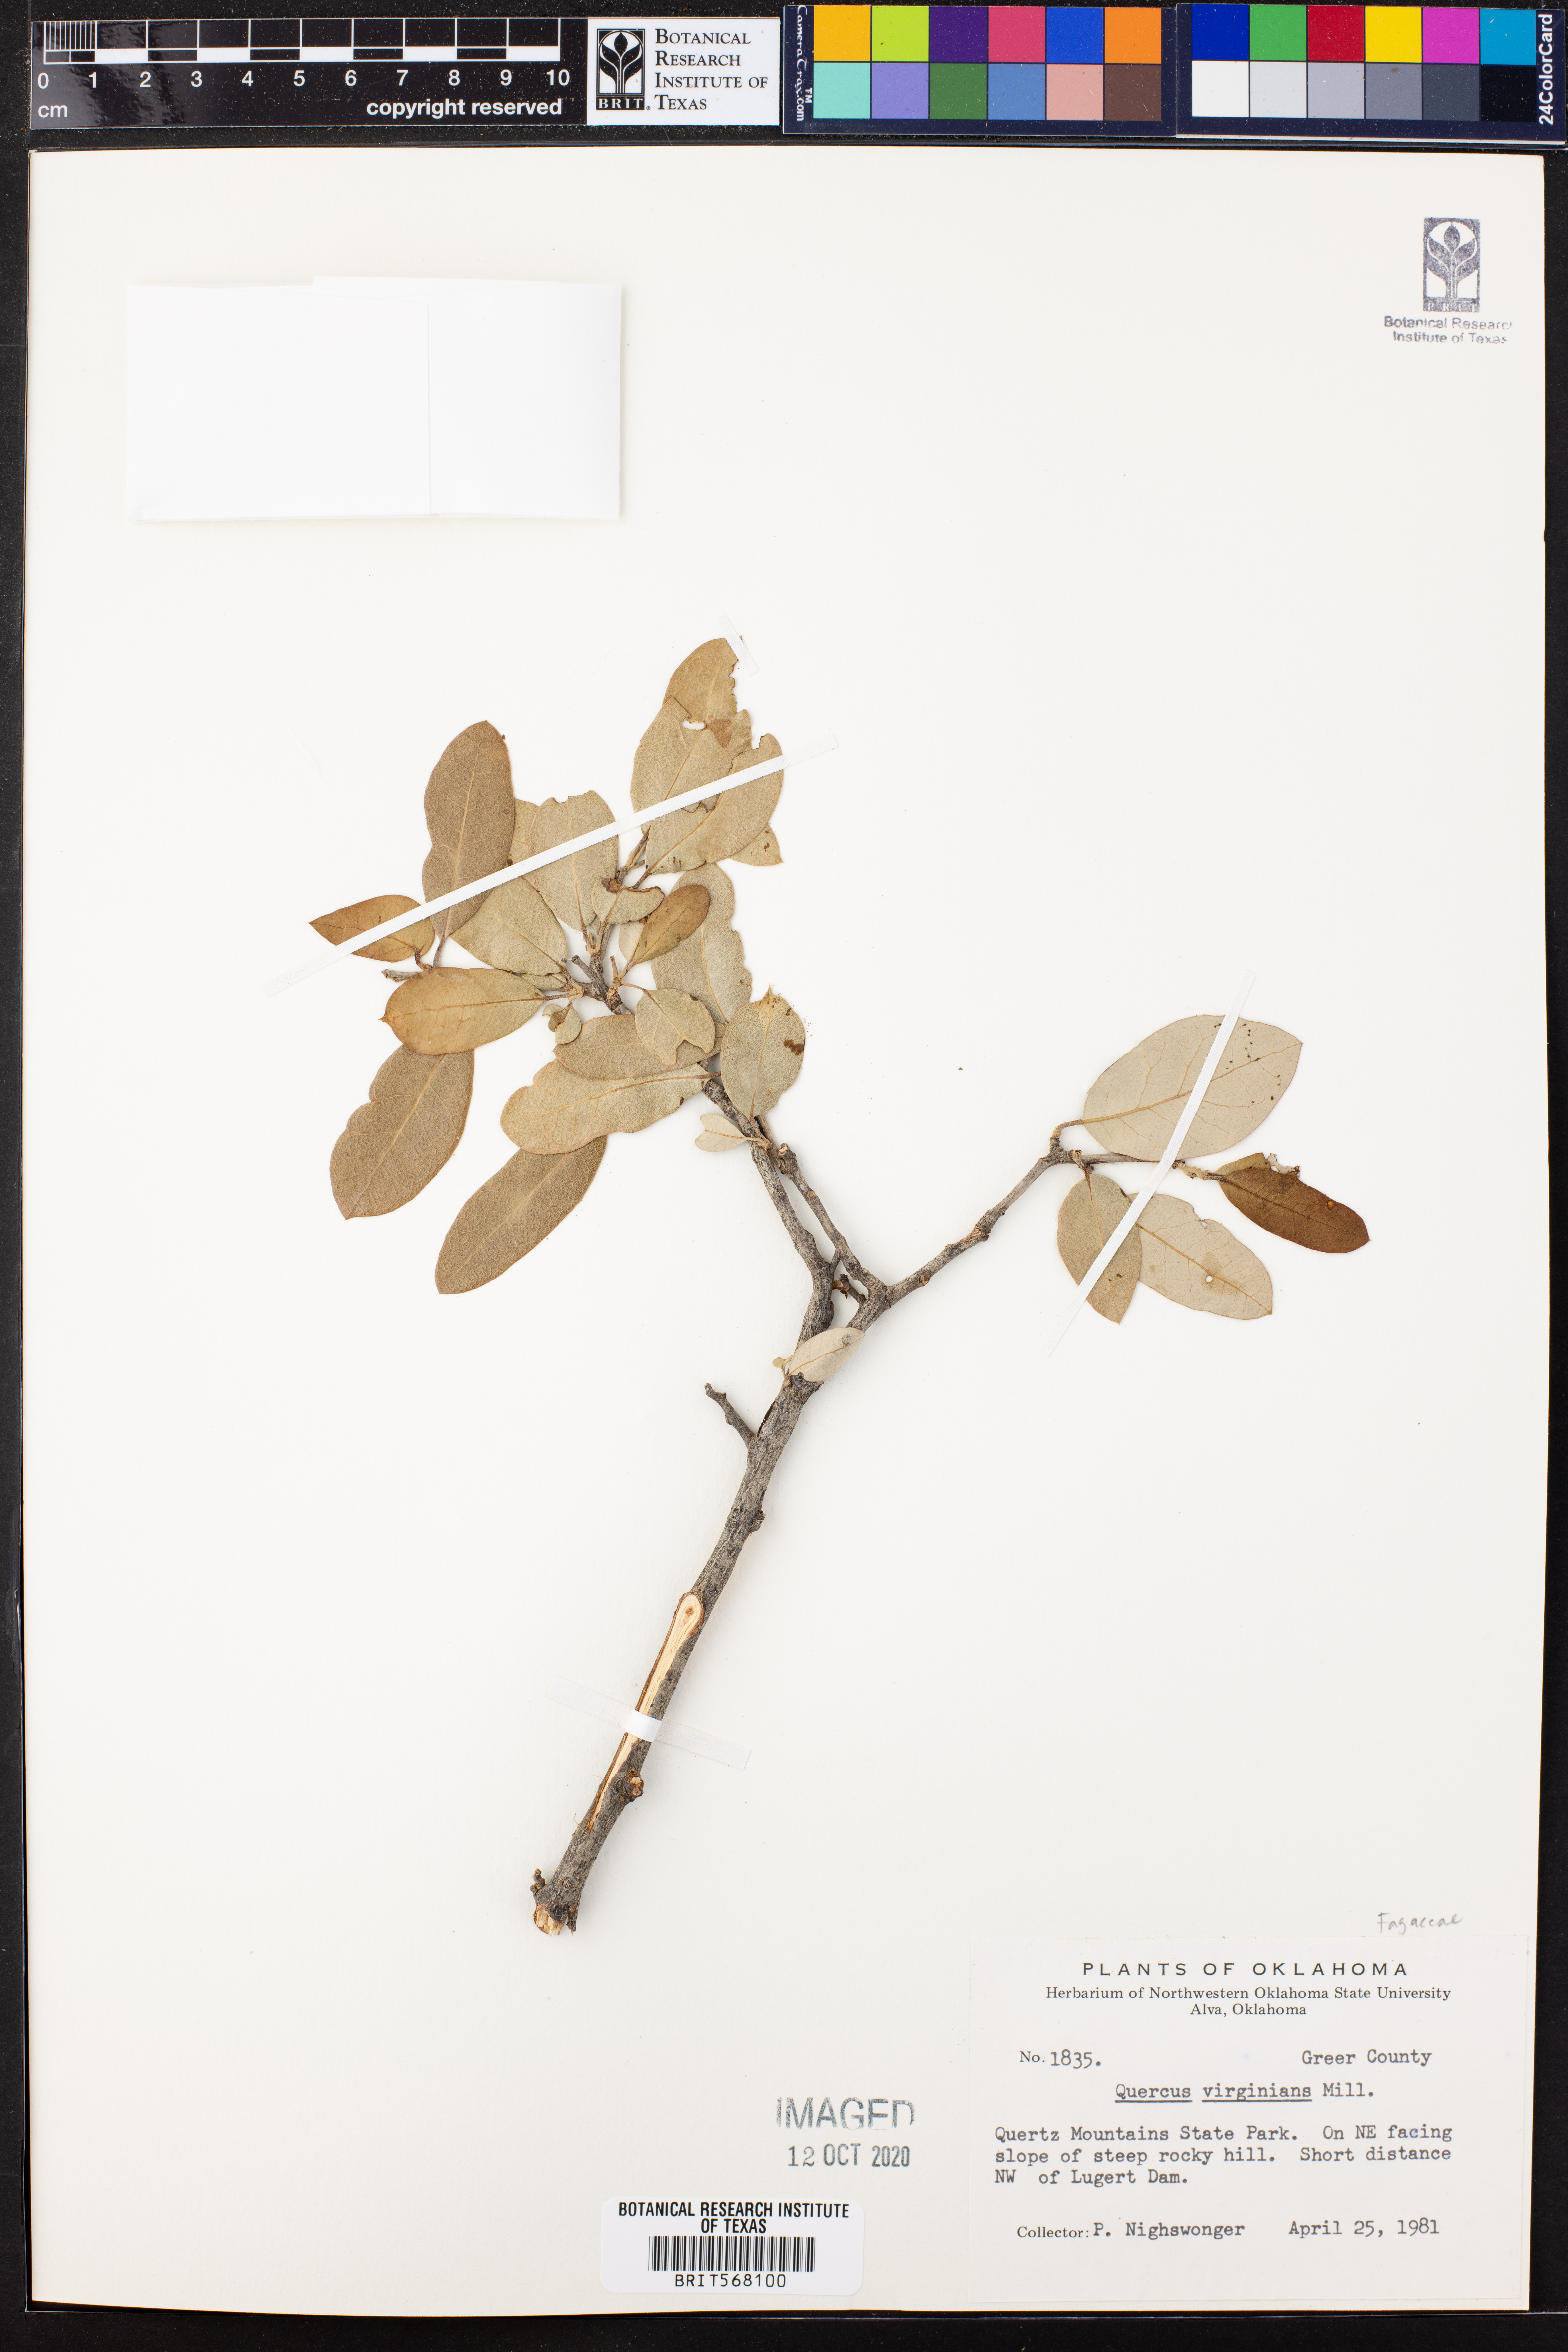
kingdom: Plantae
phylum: Tracheophyta
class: Magnoliopsida
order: Fagales
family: Fagaceae
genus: Quercus
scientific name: Quercus virginiana
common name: Southern live oak
